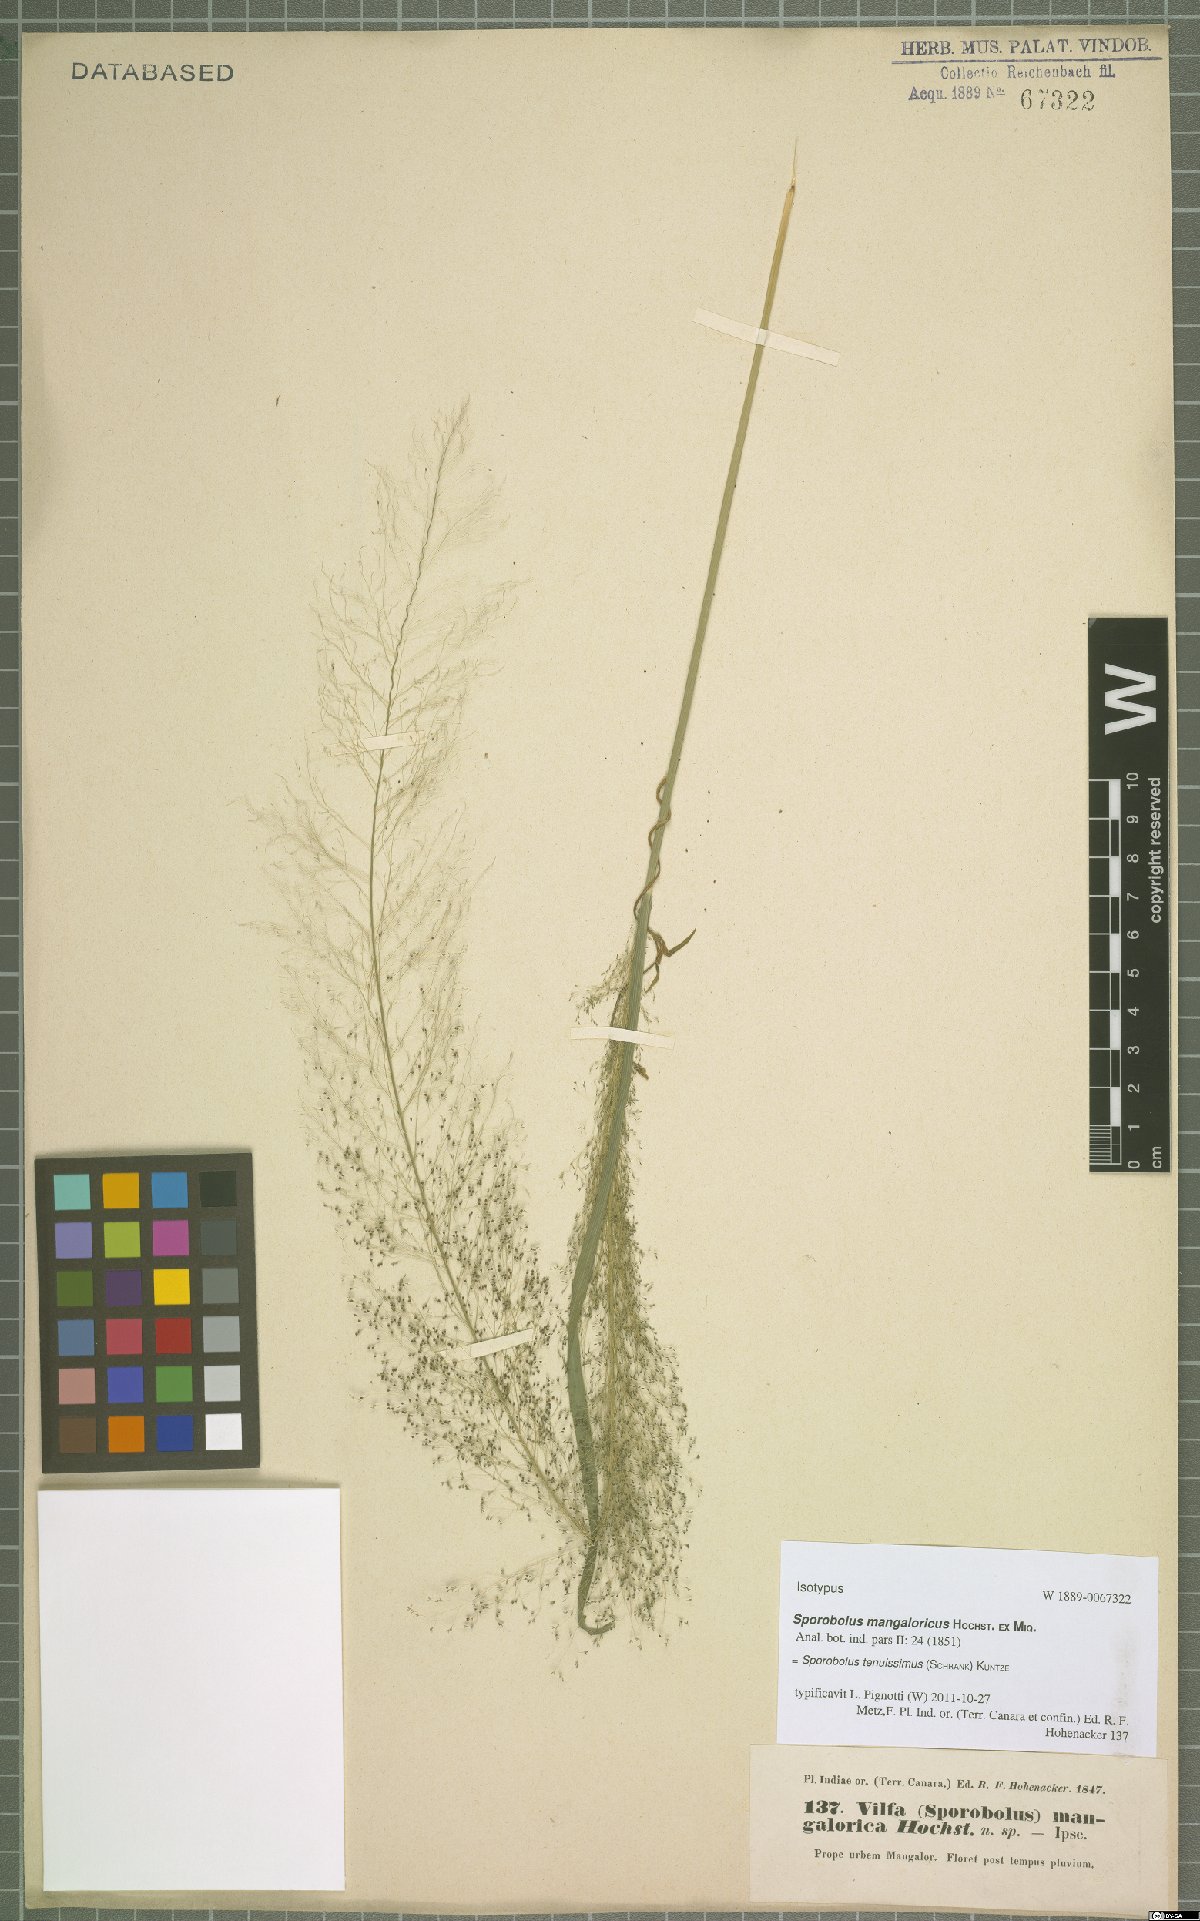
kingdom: Plantae
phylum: Tracheophyta
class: Liliopsida
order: Poales
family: Poaceae
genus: Sporobolus
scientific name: Sporobolus tenuissimus
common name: Tropical dropseed
